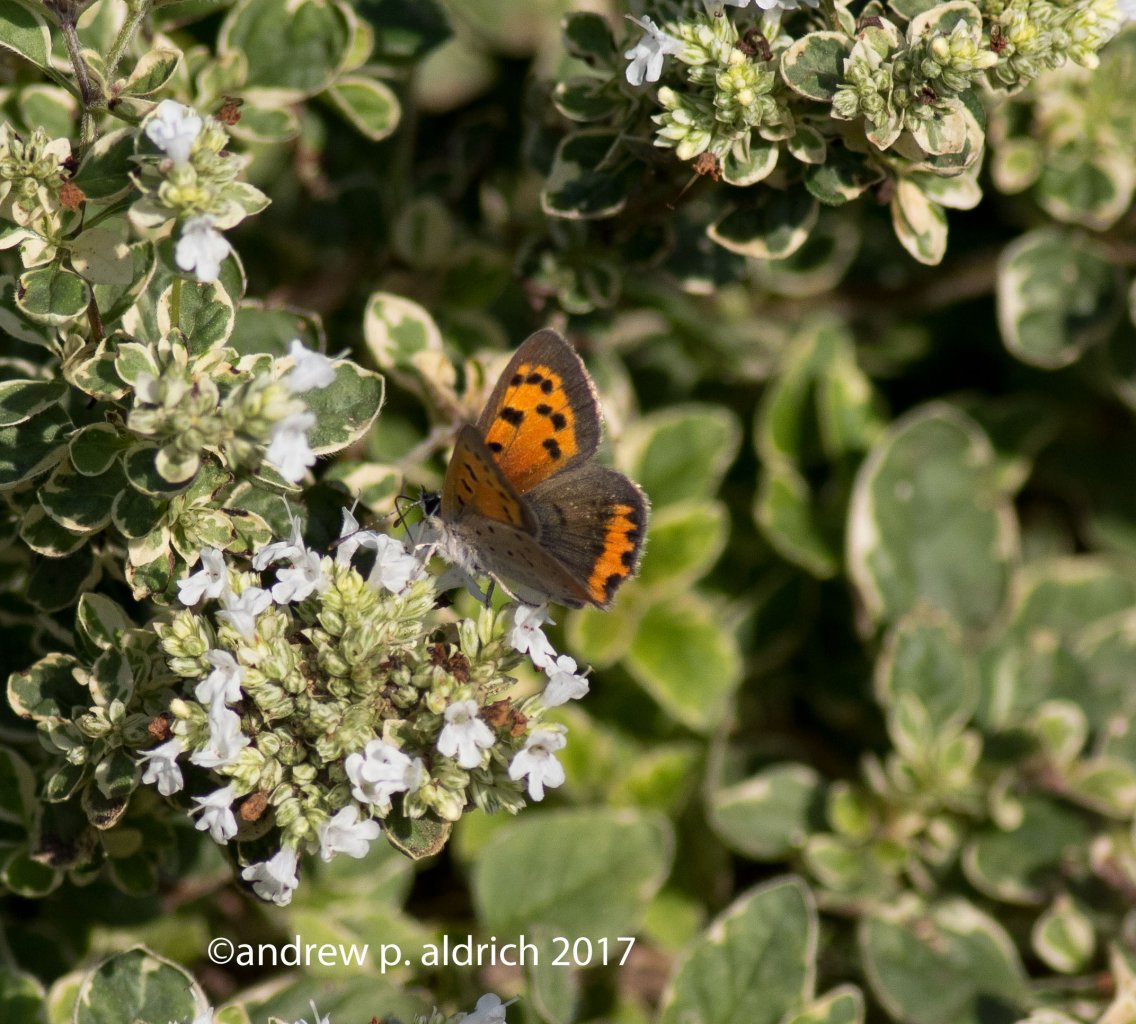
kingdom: Animalia
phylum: Arthropoda
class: Insecta
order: Lepidoptera
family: Lycaenidae
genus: Lycaena
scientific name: Lycaena phlaeas
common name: American Copper
